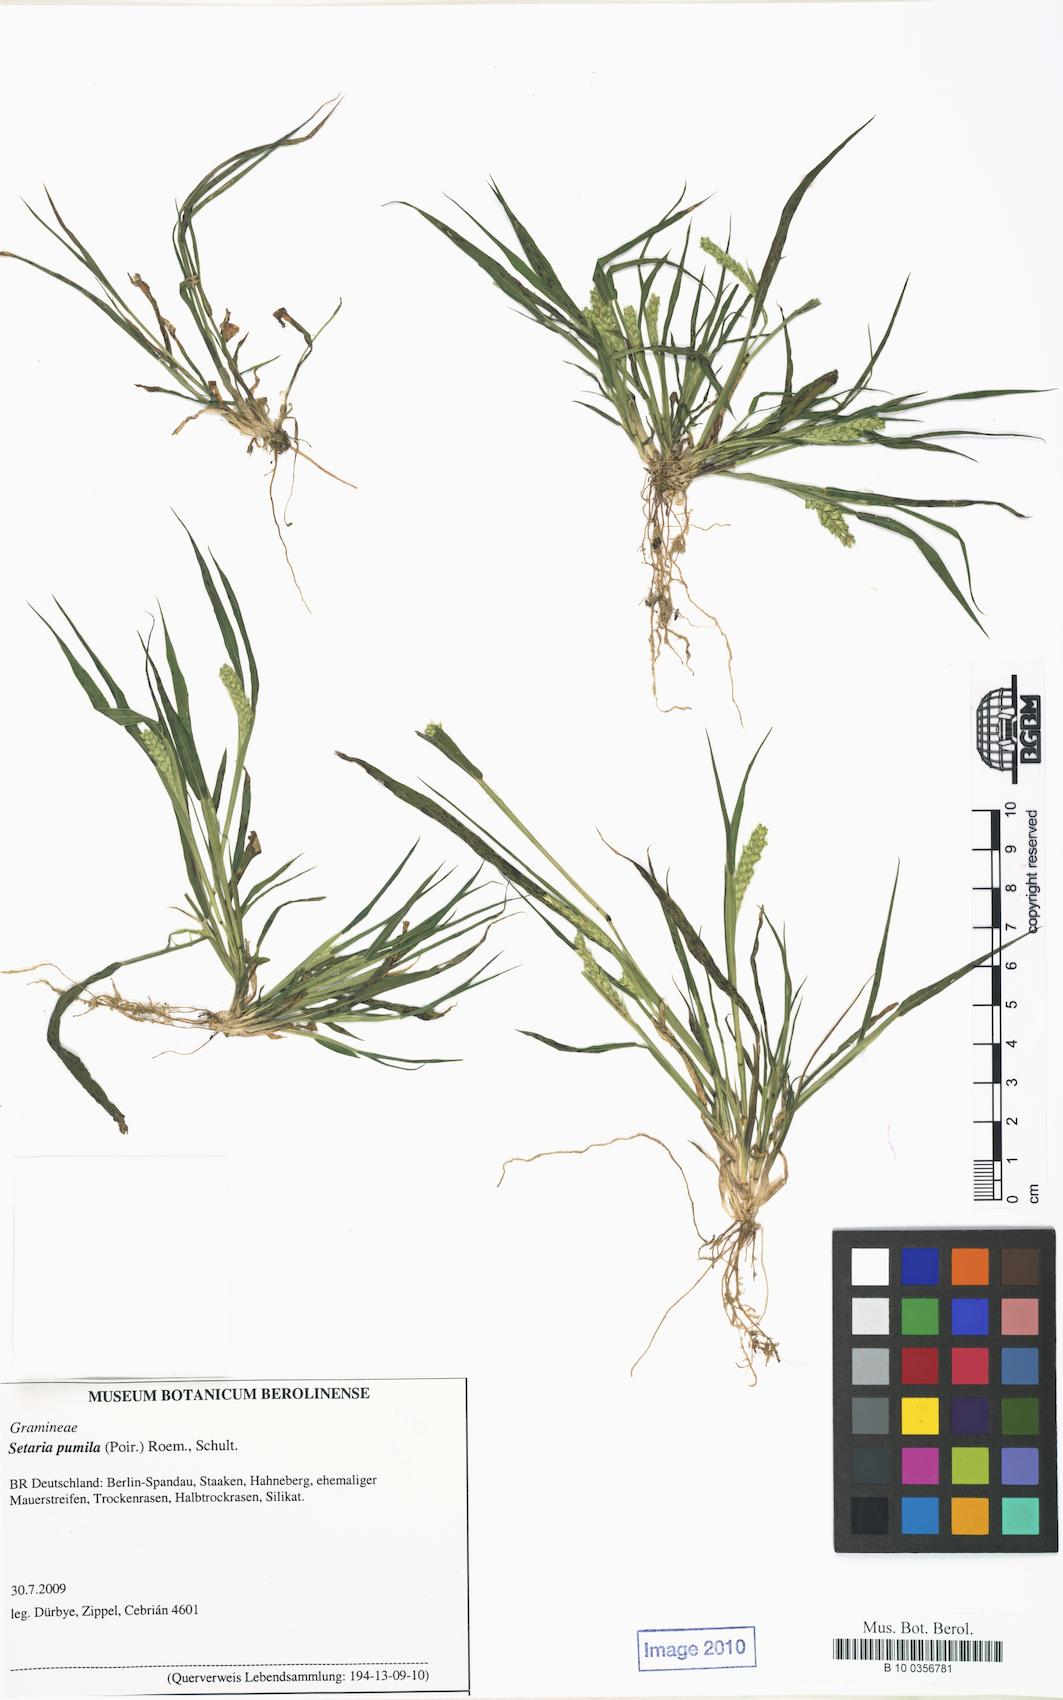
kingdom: Plantae
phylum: Tracheophyta
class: Liliopsida
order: Poales
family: Poaceae
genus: Setaria
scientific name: Setaria pumila
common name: Yellow bristle-grass
